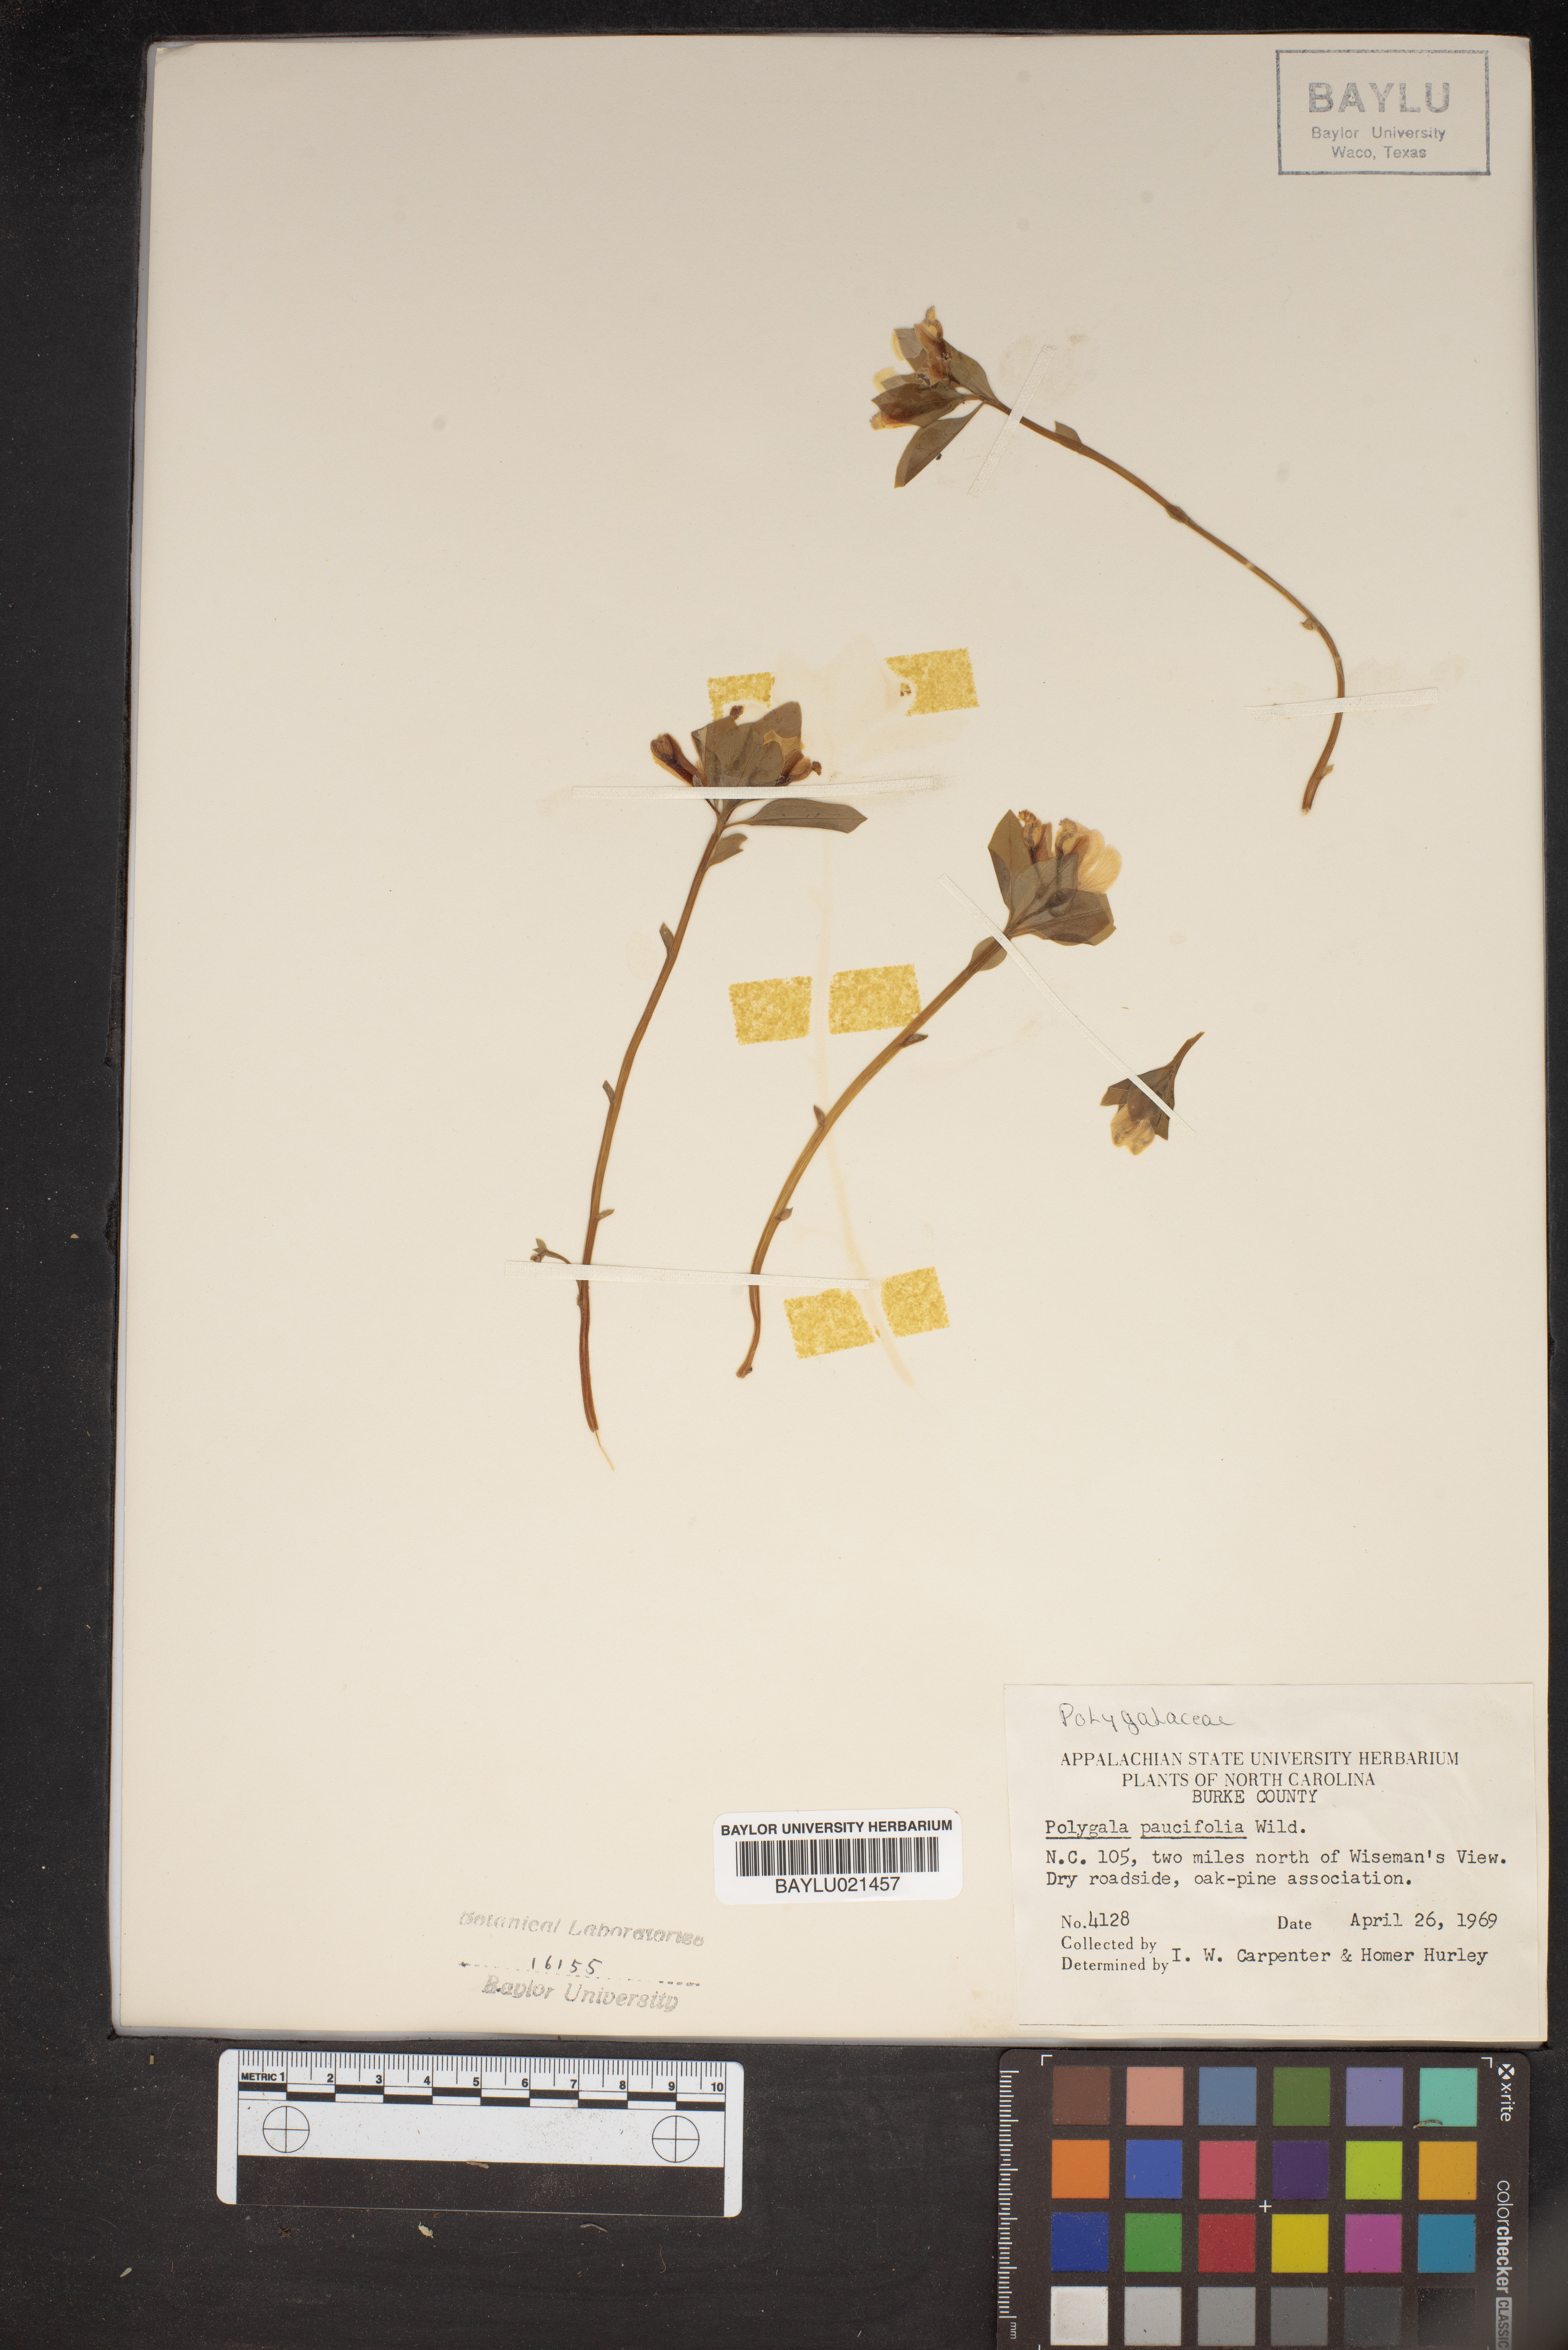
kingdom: Plantae
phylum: Tracheophyta
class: Magnoliopsida
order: Fabales
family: Polygalaceae
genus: Polygaloides
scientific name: Polygaloides paucifolia
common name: Bird-on-the-wing
